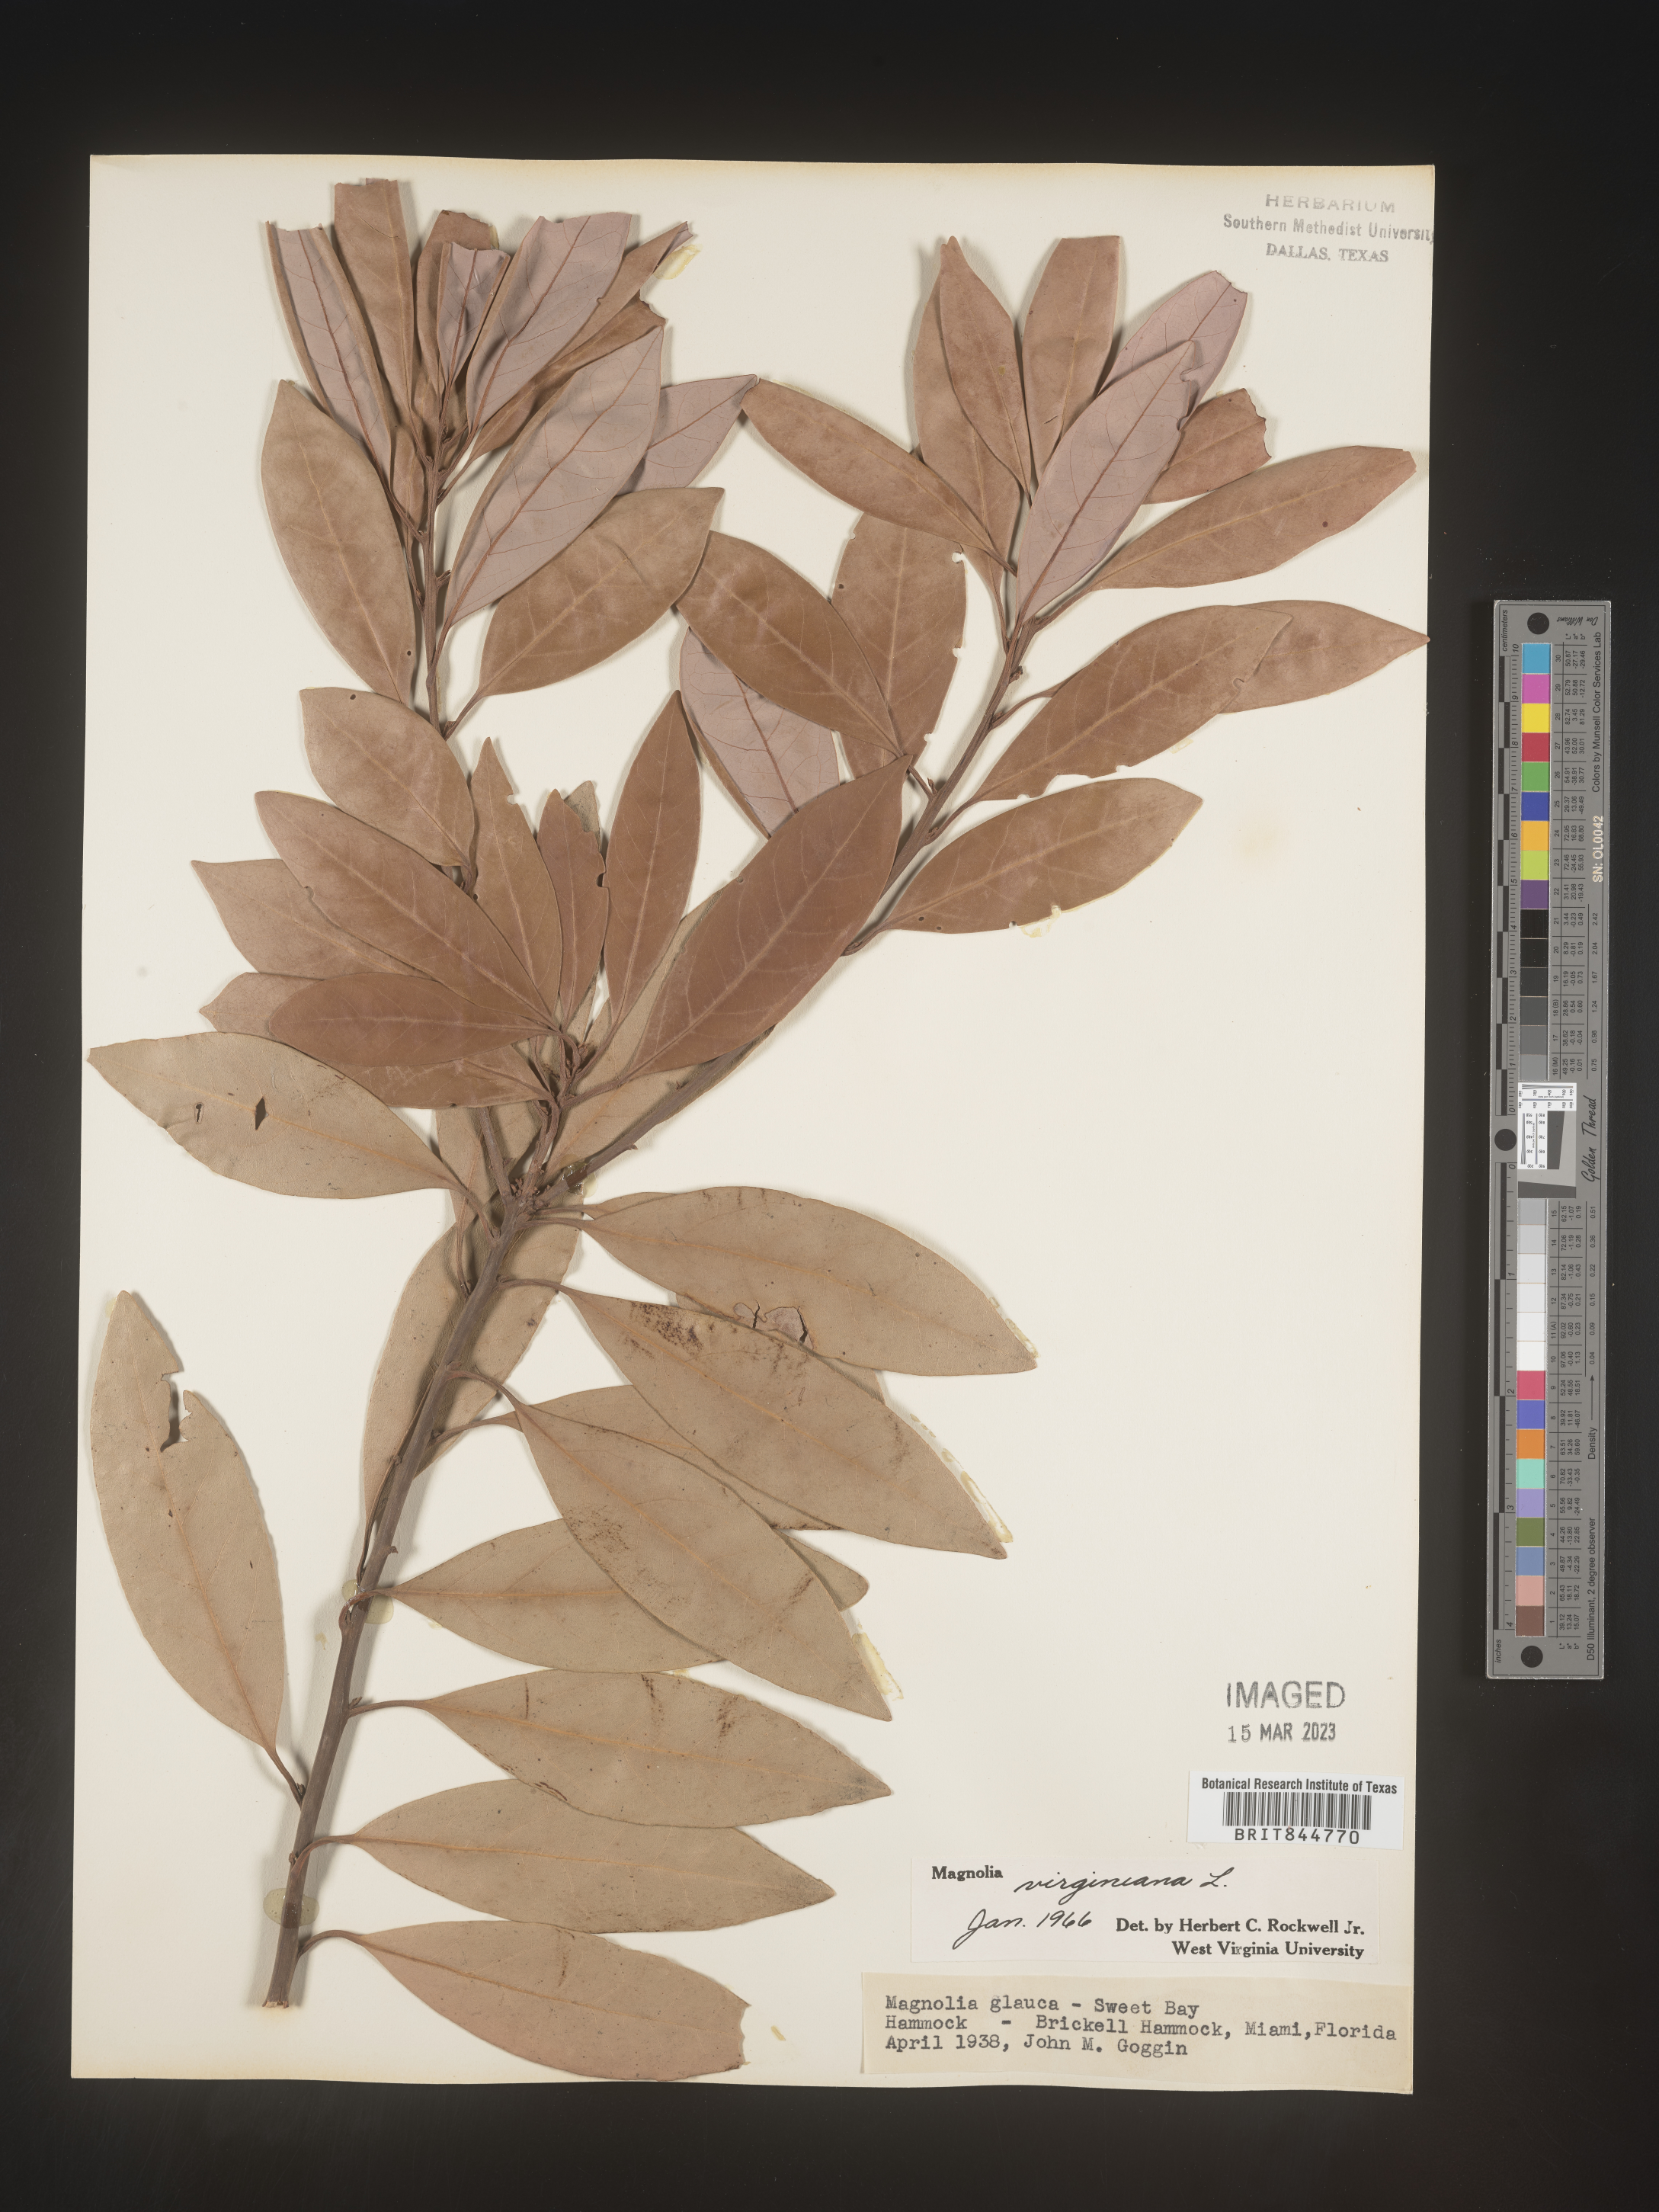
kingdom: Plantae
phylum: Tracheophyta
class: Magnoliopsida
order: Magnoliales
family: Magnoliaceae
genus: Magnolia
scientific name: Magnolia virginiana
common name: Swamp bay
